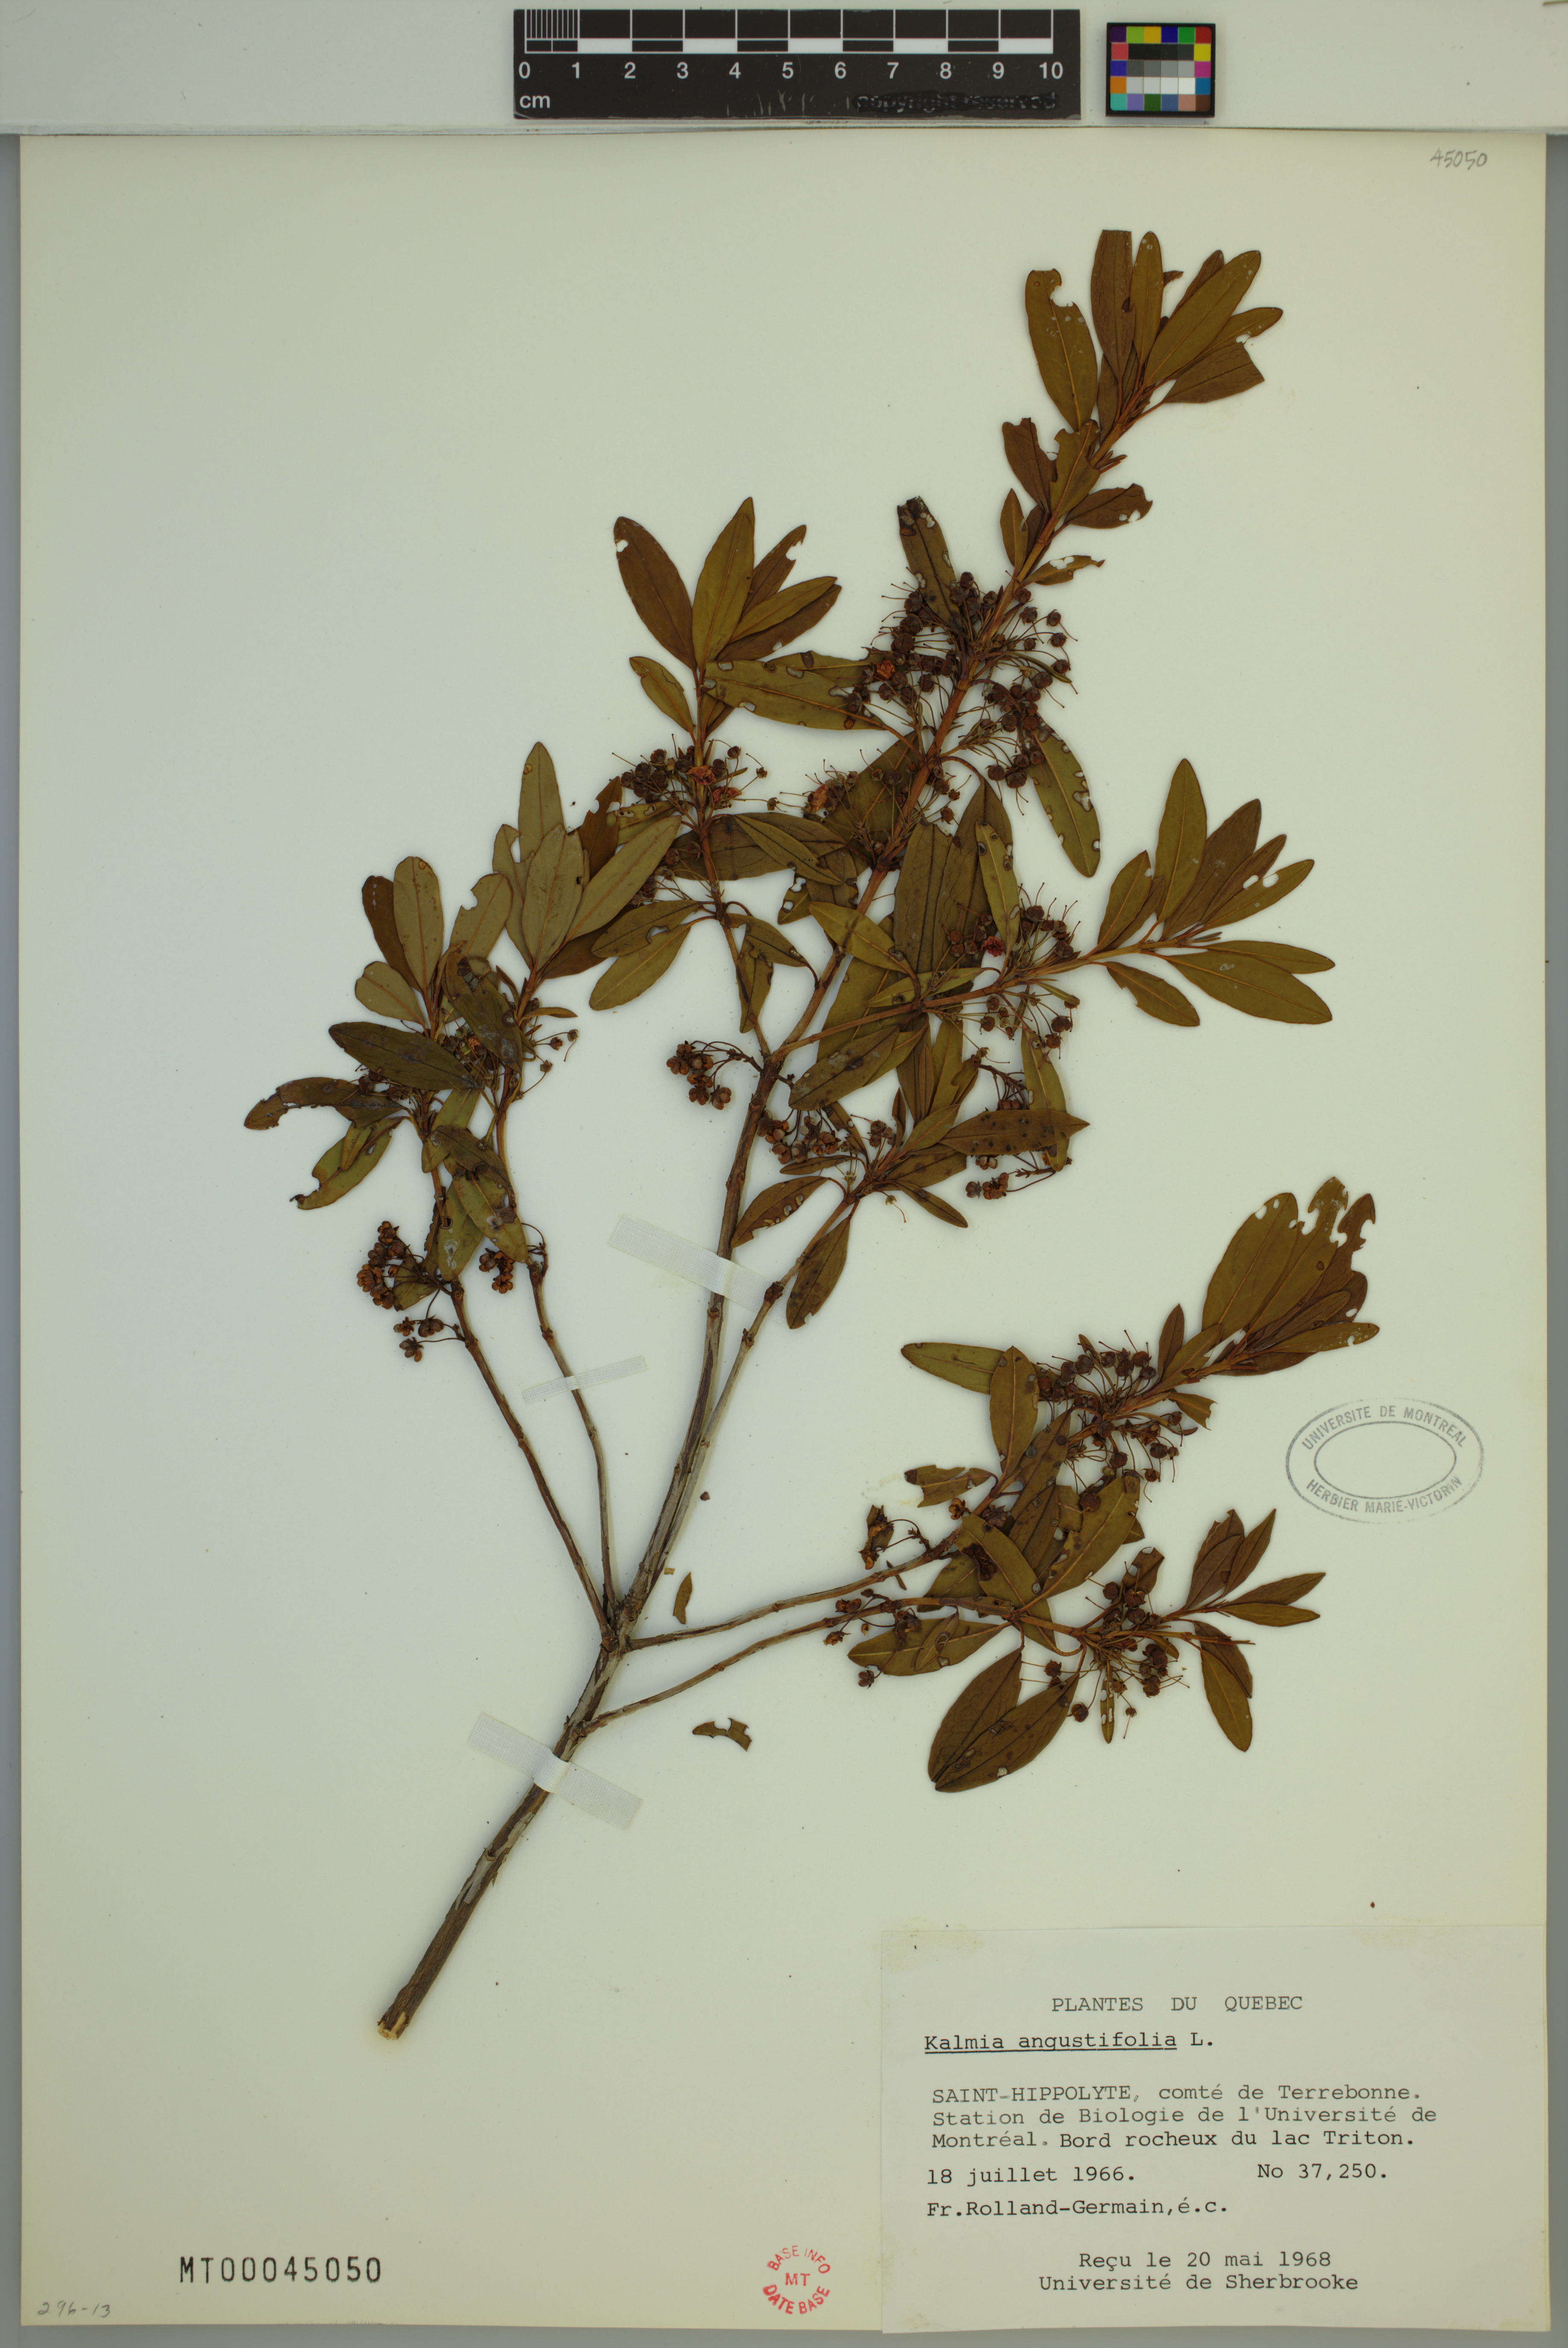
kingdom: Plantae
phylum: Tracheophyta
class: Magnoliopsida
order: Ericales
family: Ericaceae
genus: Kalmia
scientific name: Kalmia angustifolia
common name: Sheep-laurel
